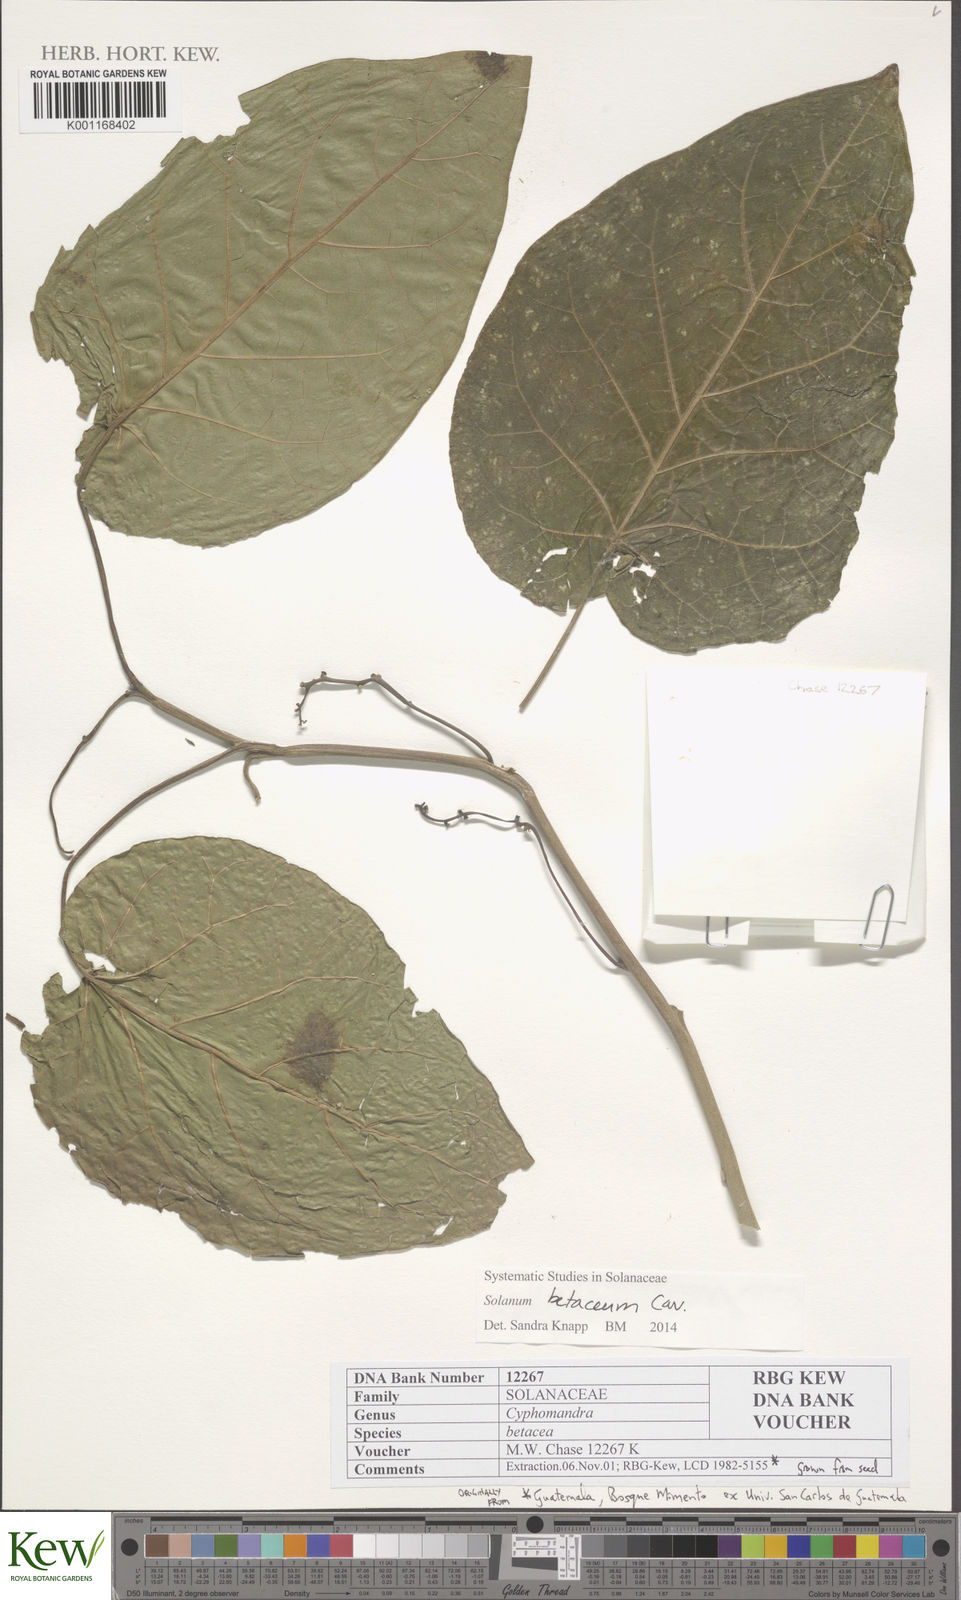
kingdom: Plantae
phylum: Tracheophyta
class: Magnoliopsida
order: Solanales
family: Solanaceae
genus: Solanum
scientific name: Solanum betaceum
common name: Tamarillo
